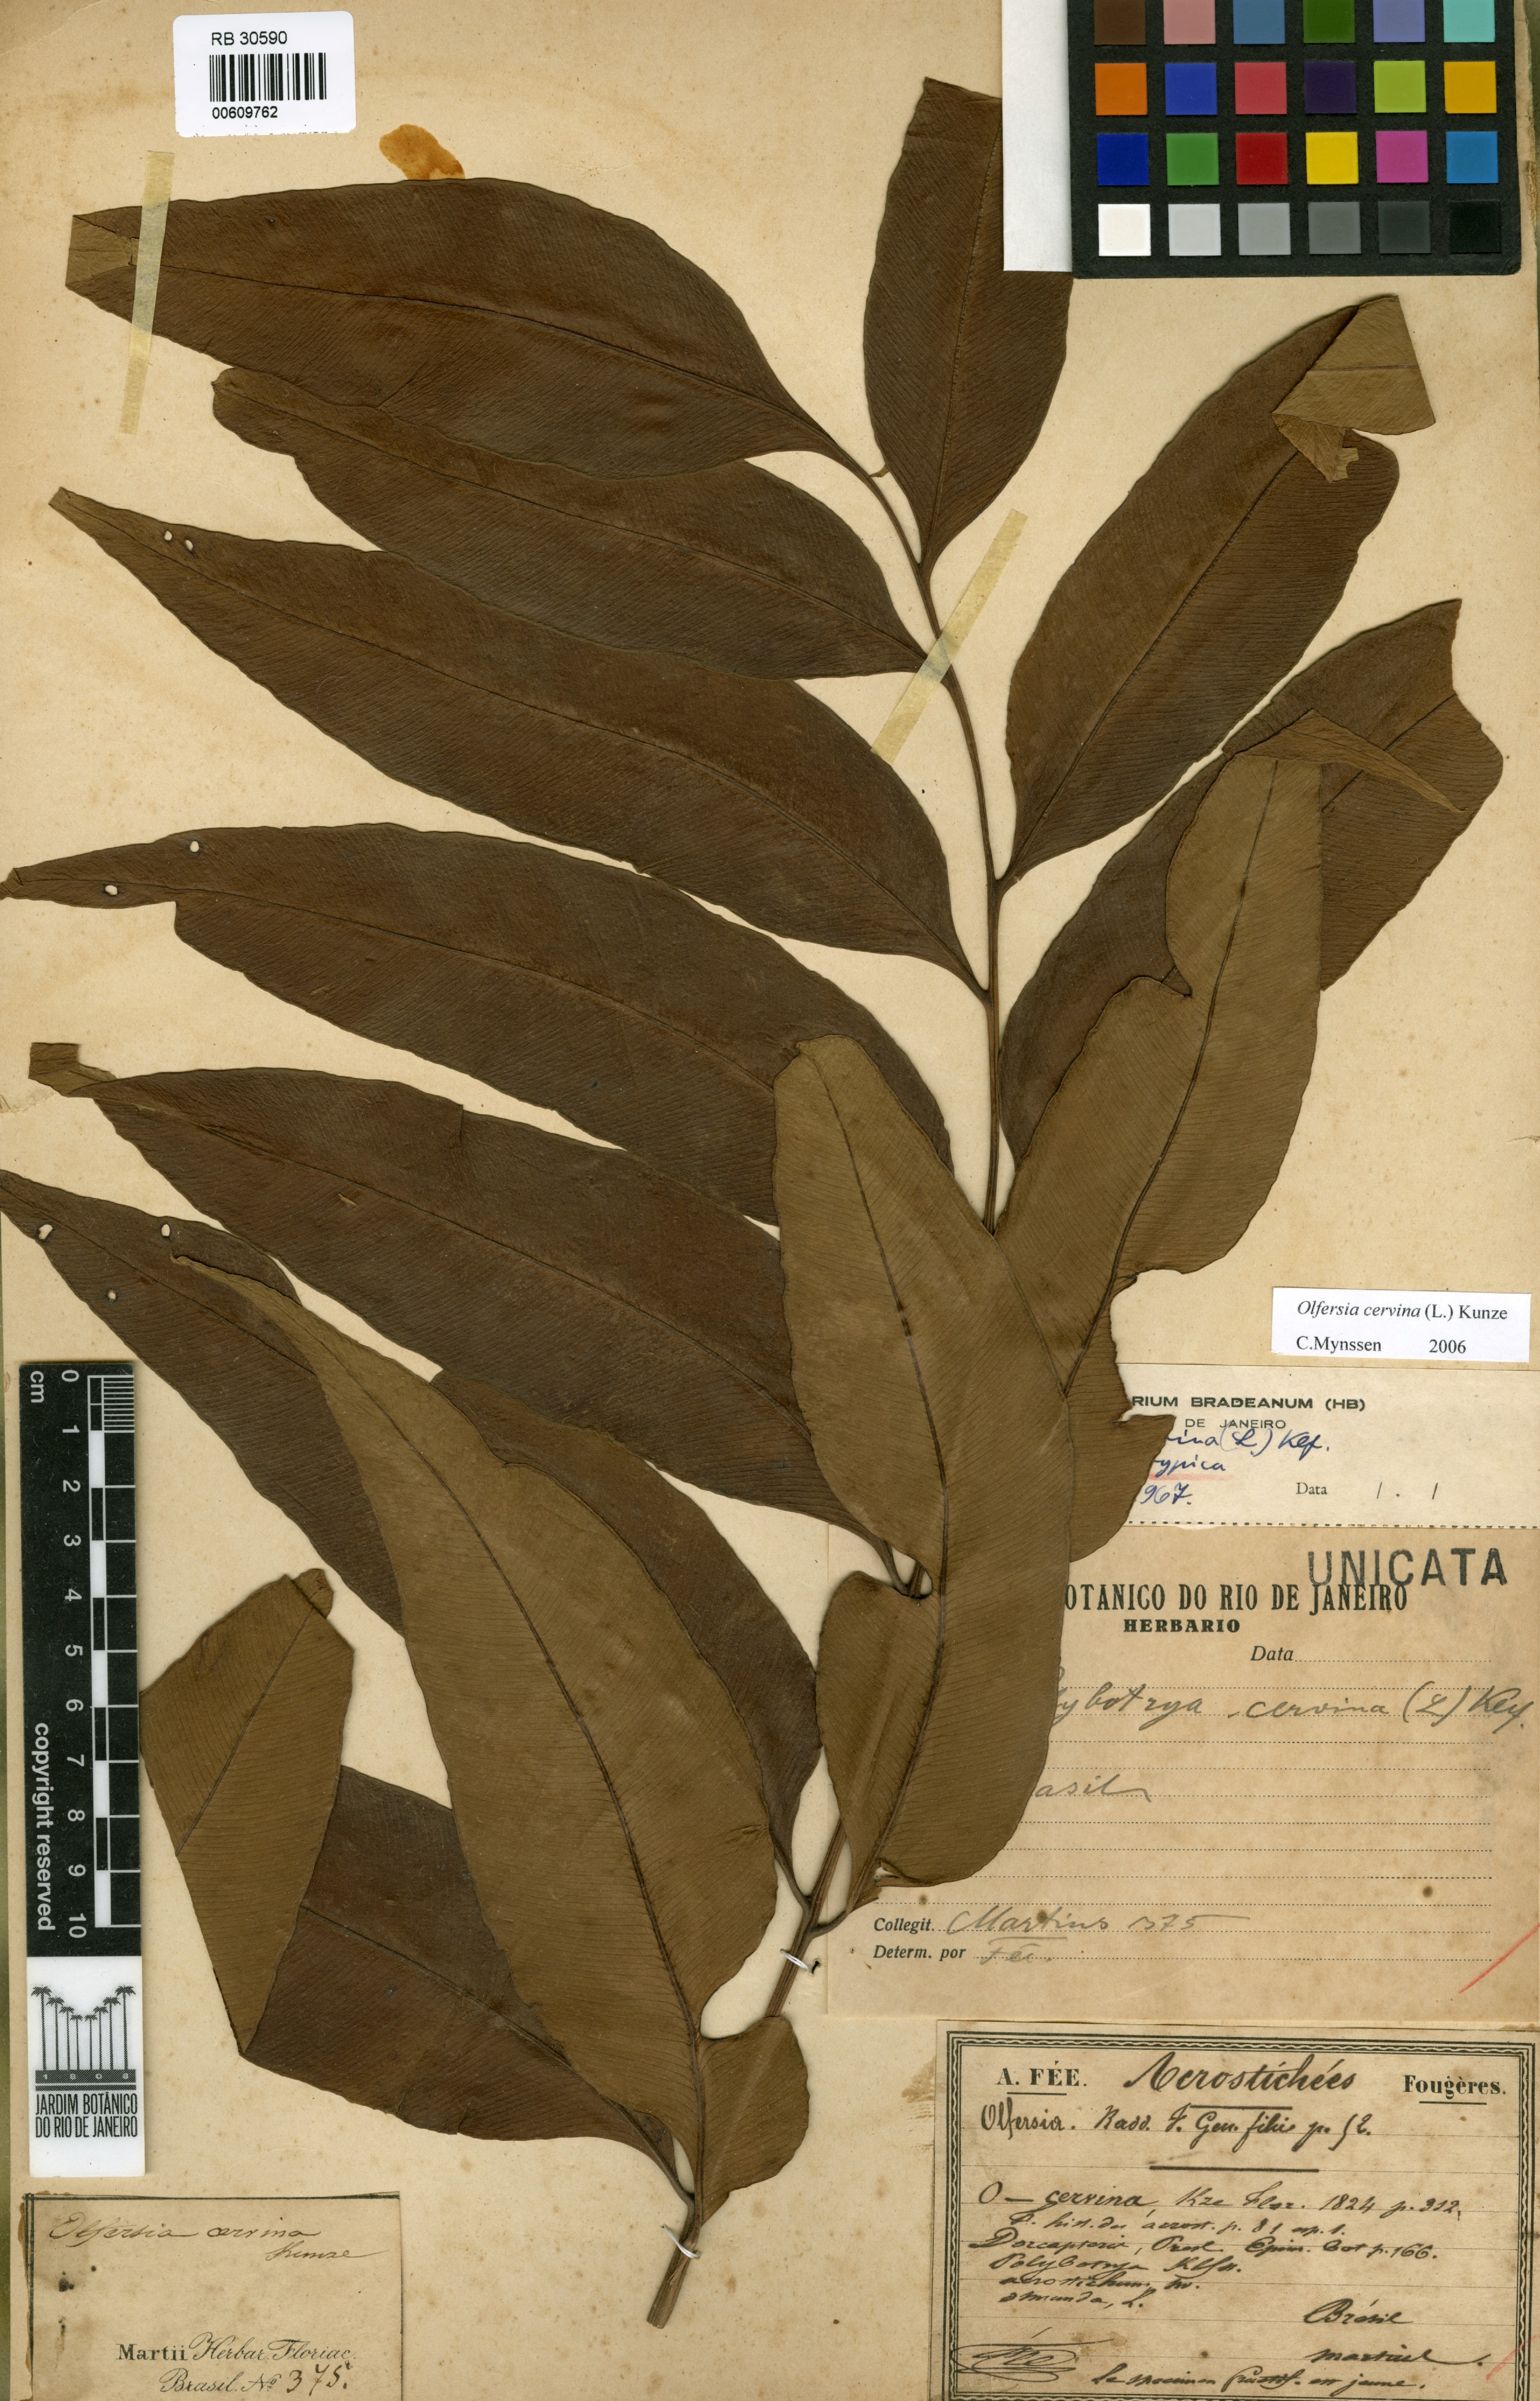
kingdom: Plantae
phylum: Tracheophyta
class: Polypodiopsida
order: Polypodiales
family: Dryopteridaceae
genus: Olfersia
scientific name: Olfersia cervina
